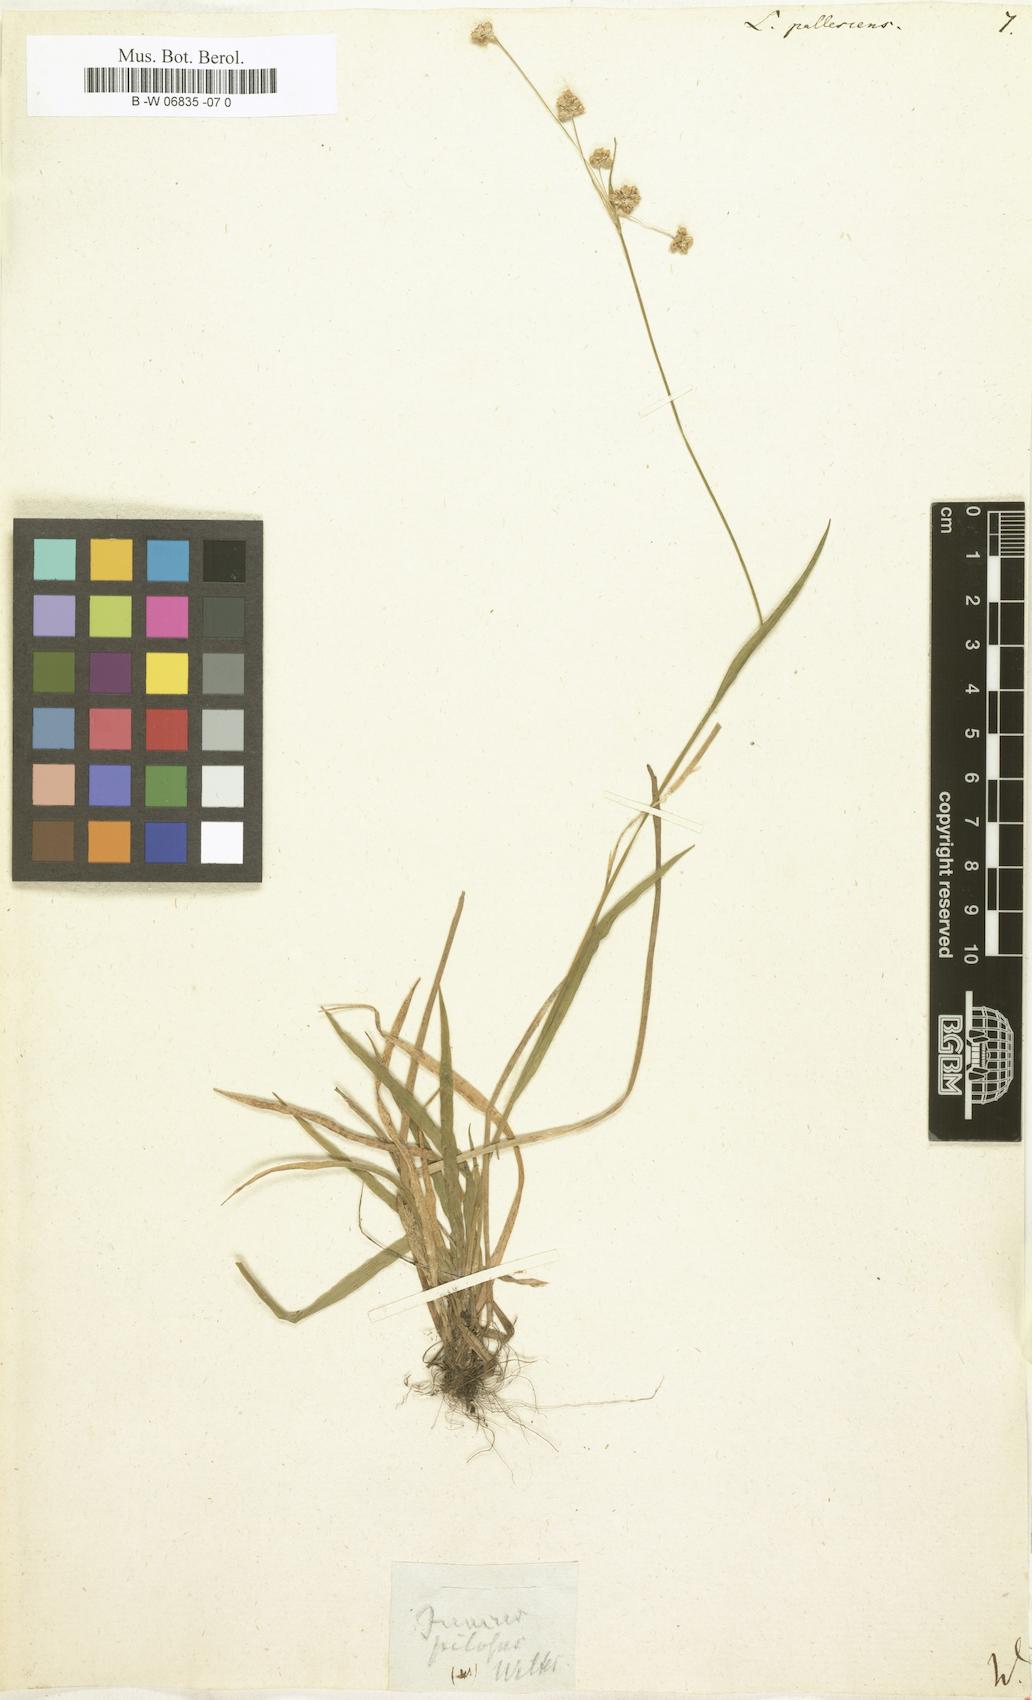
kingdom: Plantae
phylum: Tracheophyta
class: Liliopsida
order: Poales
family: Juncaceae
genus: Luzula
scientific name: Luzula pallescens
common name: Fen wood-rush
